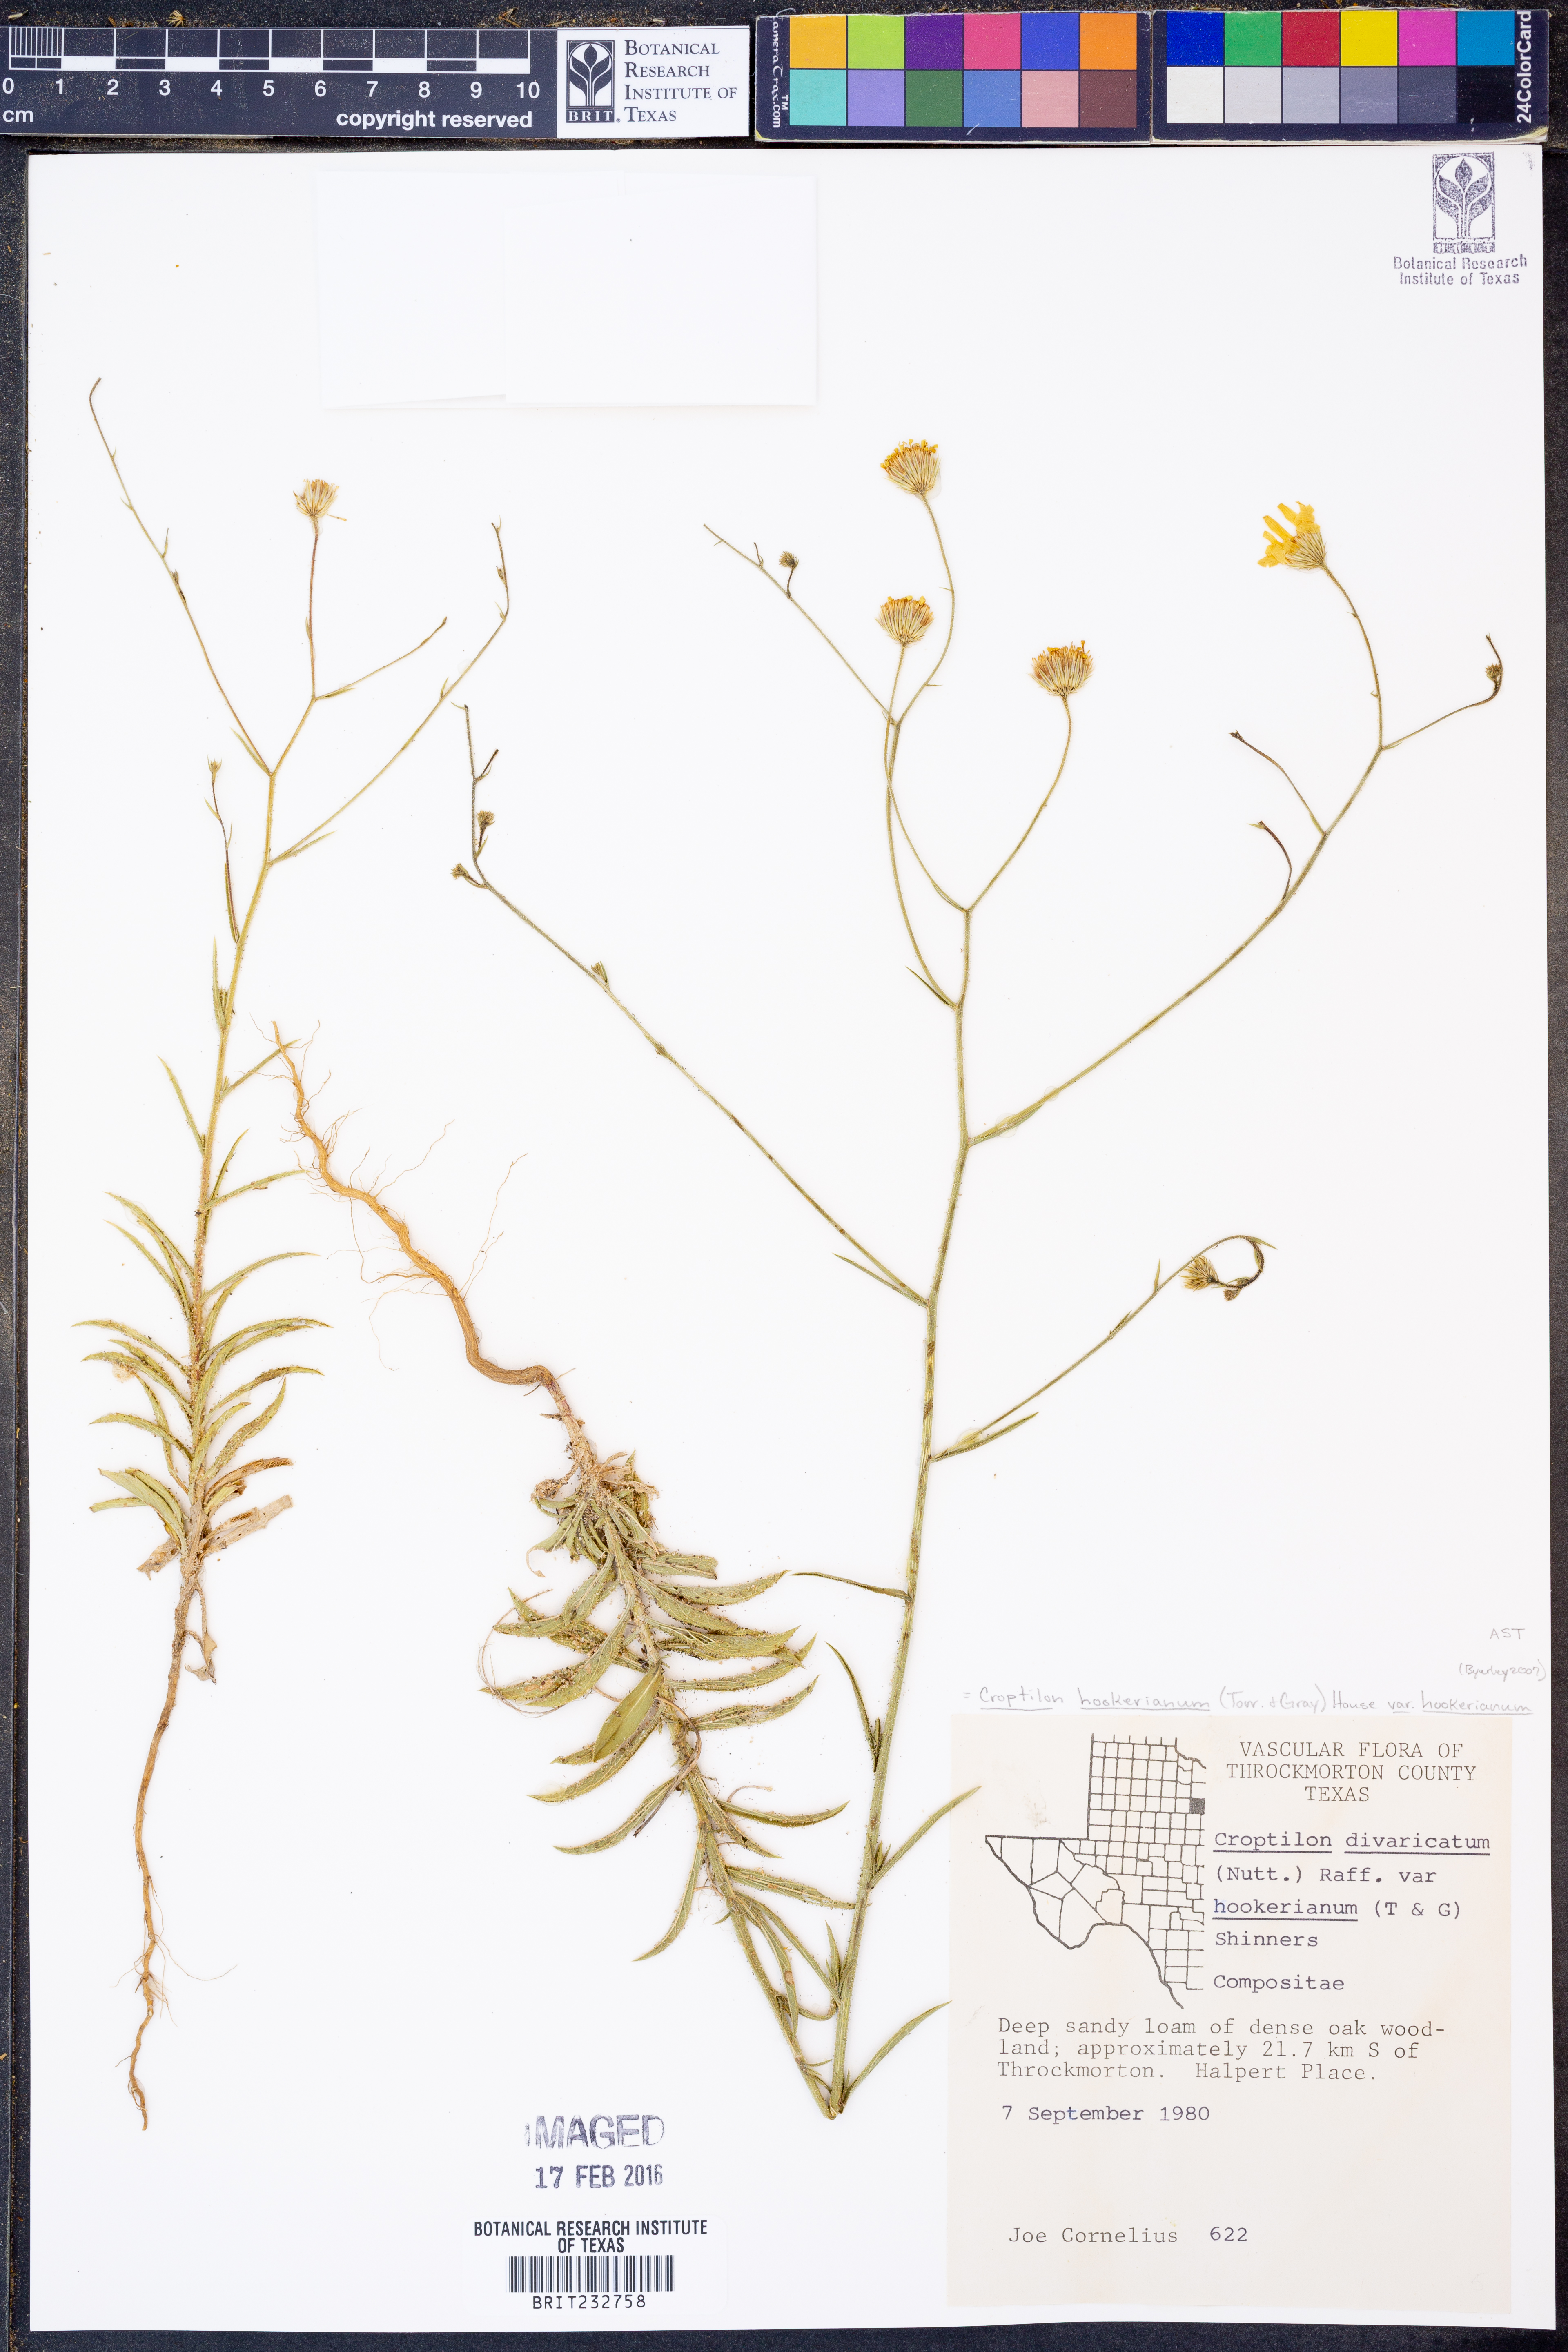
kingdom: Plantae
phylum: Tracheophyta
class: Magnoliopsida
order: Asterales
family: Asteraceae
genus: Croptilon
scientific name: Croptilon hookerianum
